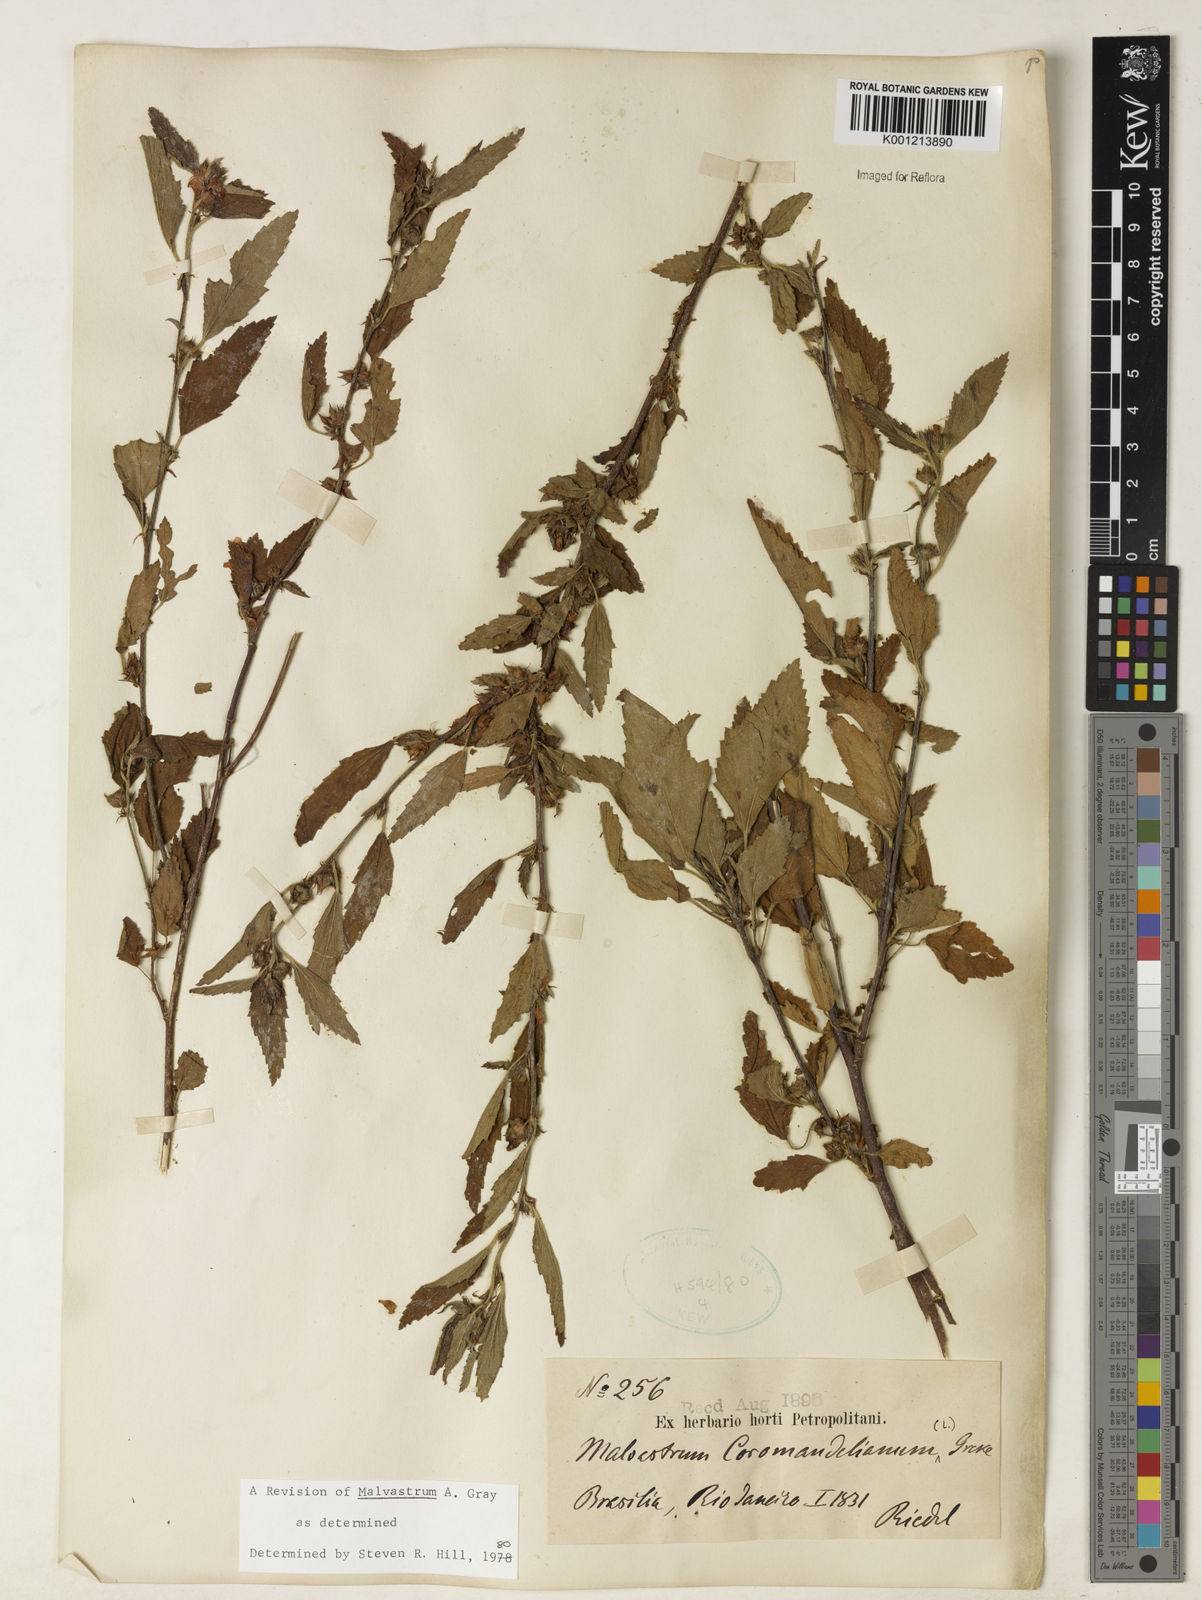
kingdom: Plantae
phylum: Tracheophyta
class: Magnoliopsida
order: Malvales
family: Malvaceae
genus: Malvastrum
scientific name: Malvastrum coromandelianum
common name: Threelobe false mallow
